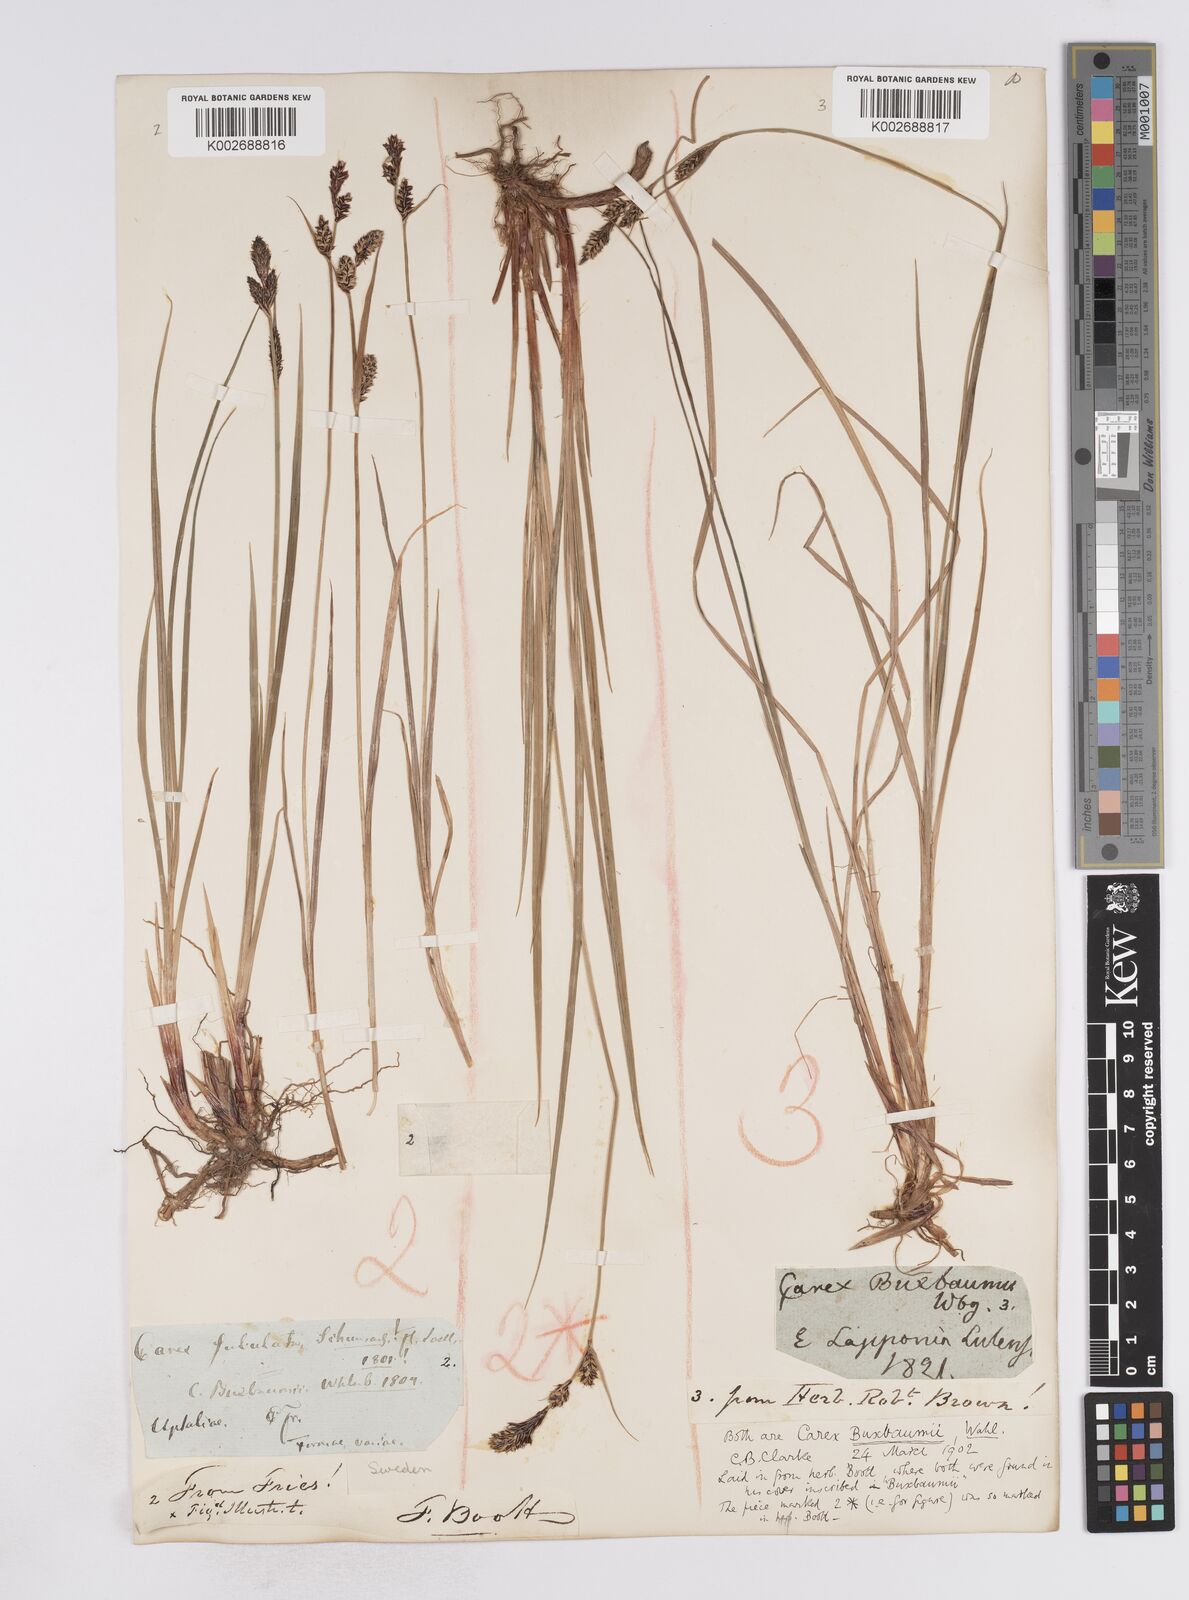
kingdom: Plantae
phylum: Tracheophyta
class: Liliopsida
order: Poales
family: Cyperaceae
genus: Carex
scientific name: Carex buxbaumii
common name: Club sedge
